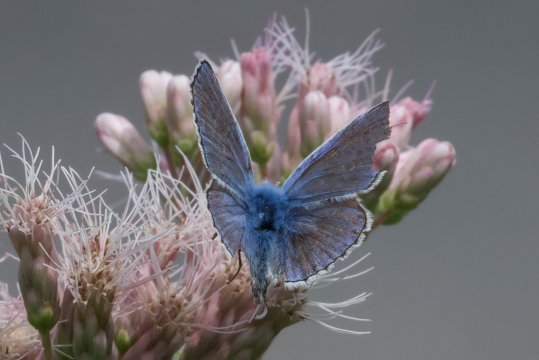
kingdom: Animalia
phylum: Arthropoda
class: Insecta
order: Lepidoptera
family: Lycaenidae
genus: Polyommatus
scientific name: Polyommatus icarus
